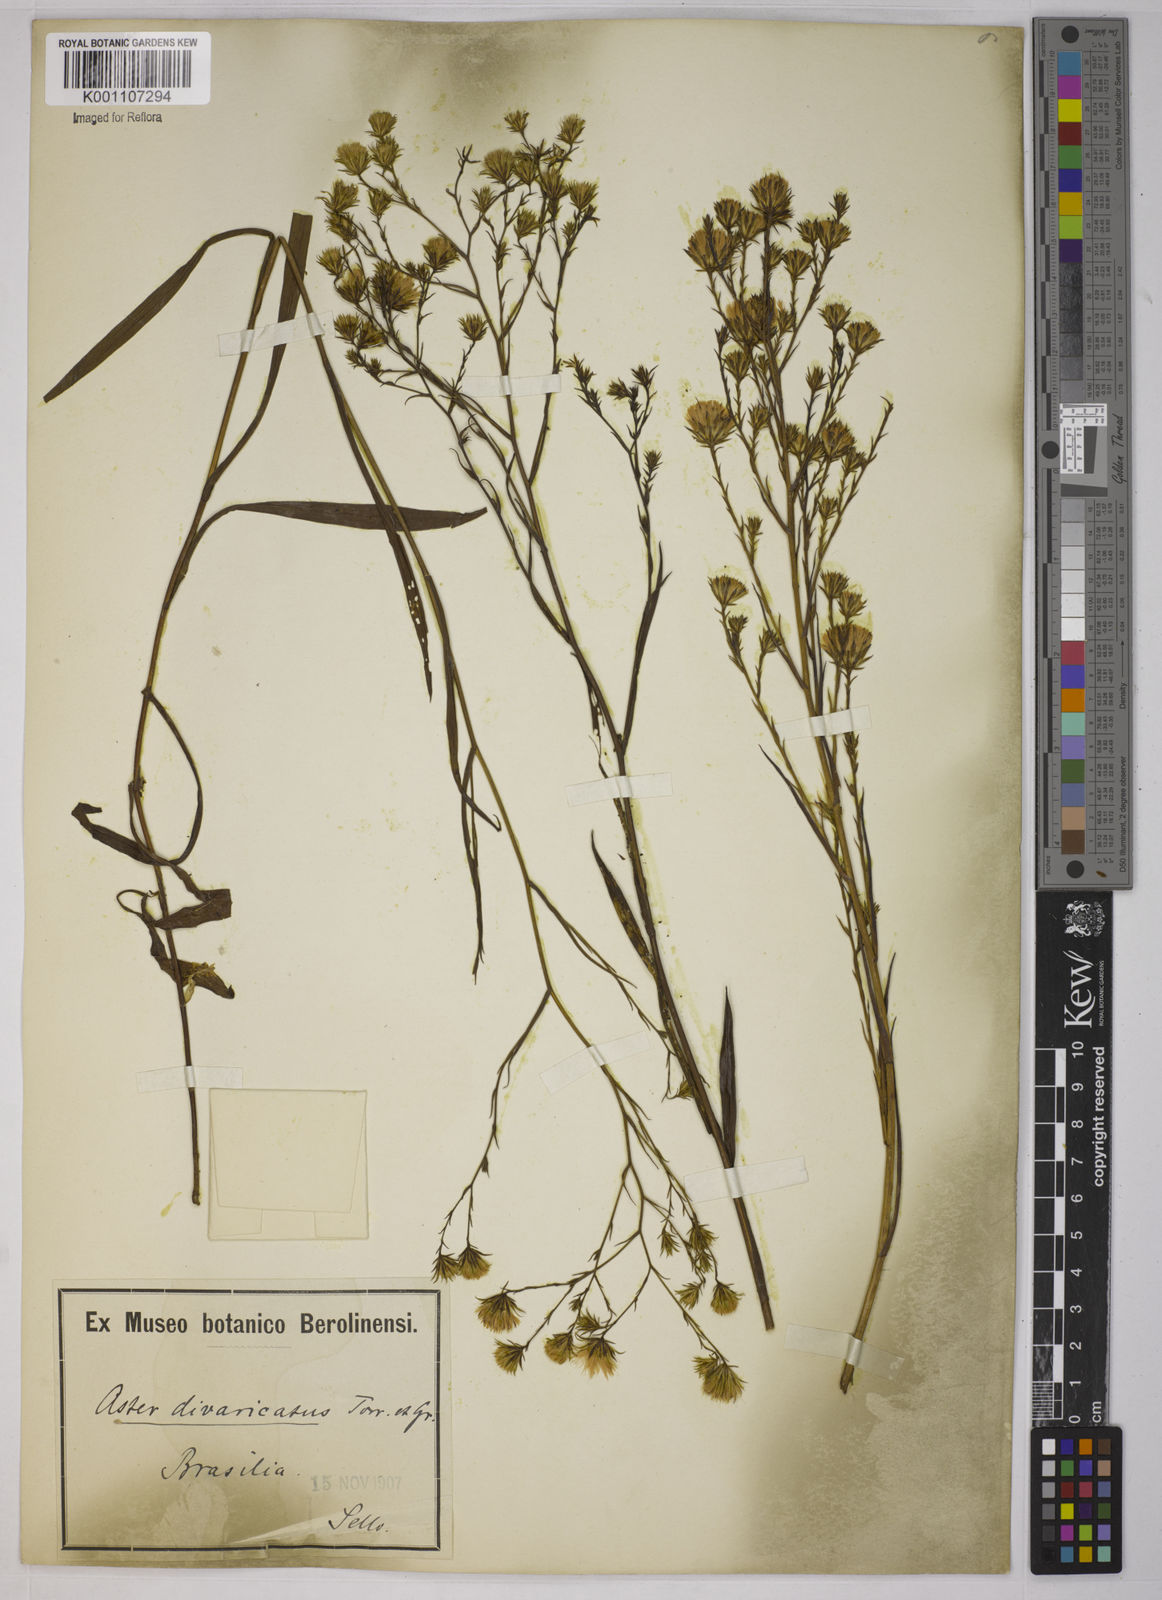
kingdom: Plantae
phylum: Tracheophyta
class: Magnoliopsida
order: Asterales
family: Asteraceae
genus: Symphyotrichum
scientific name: Symphyotrichum
